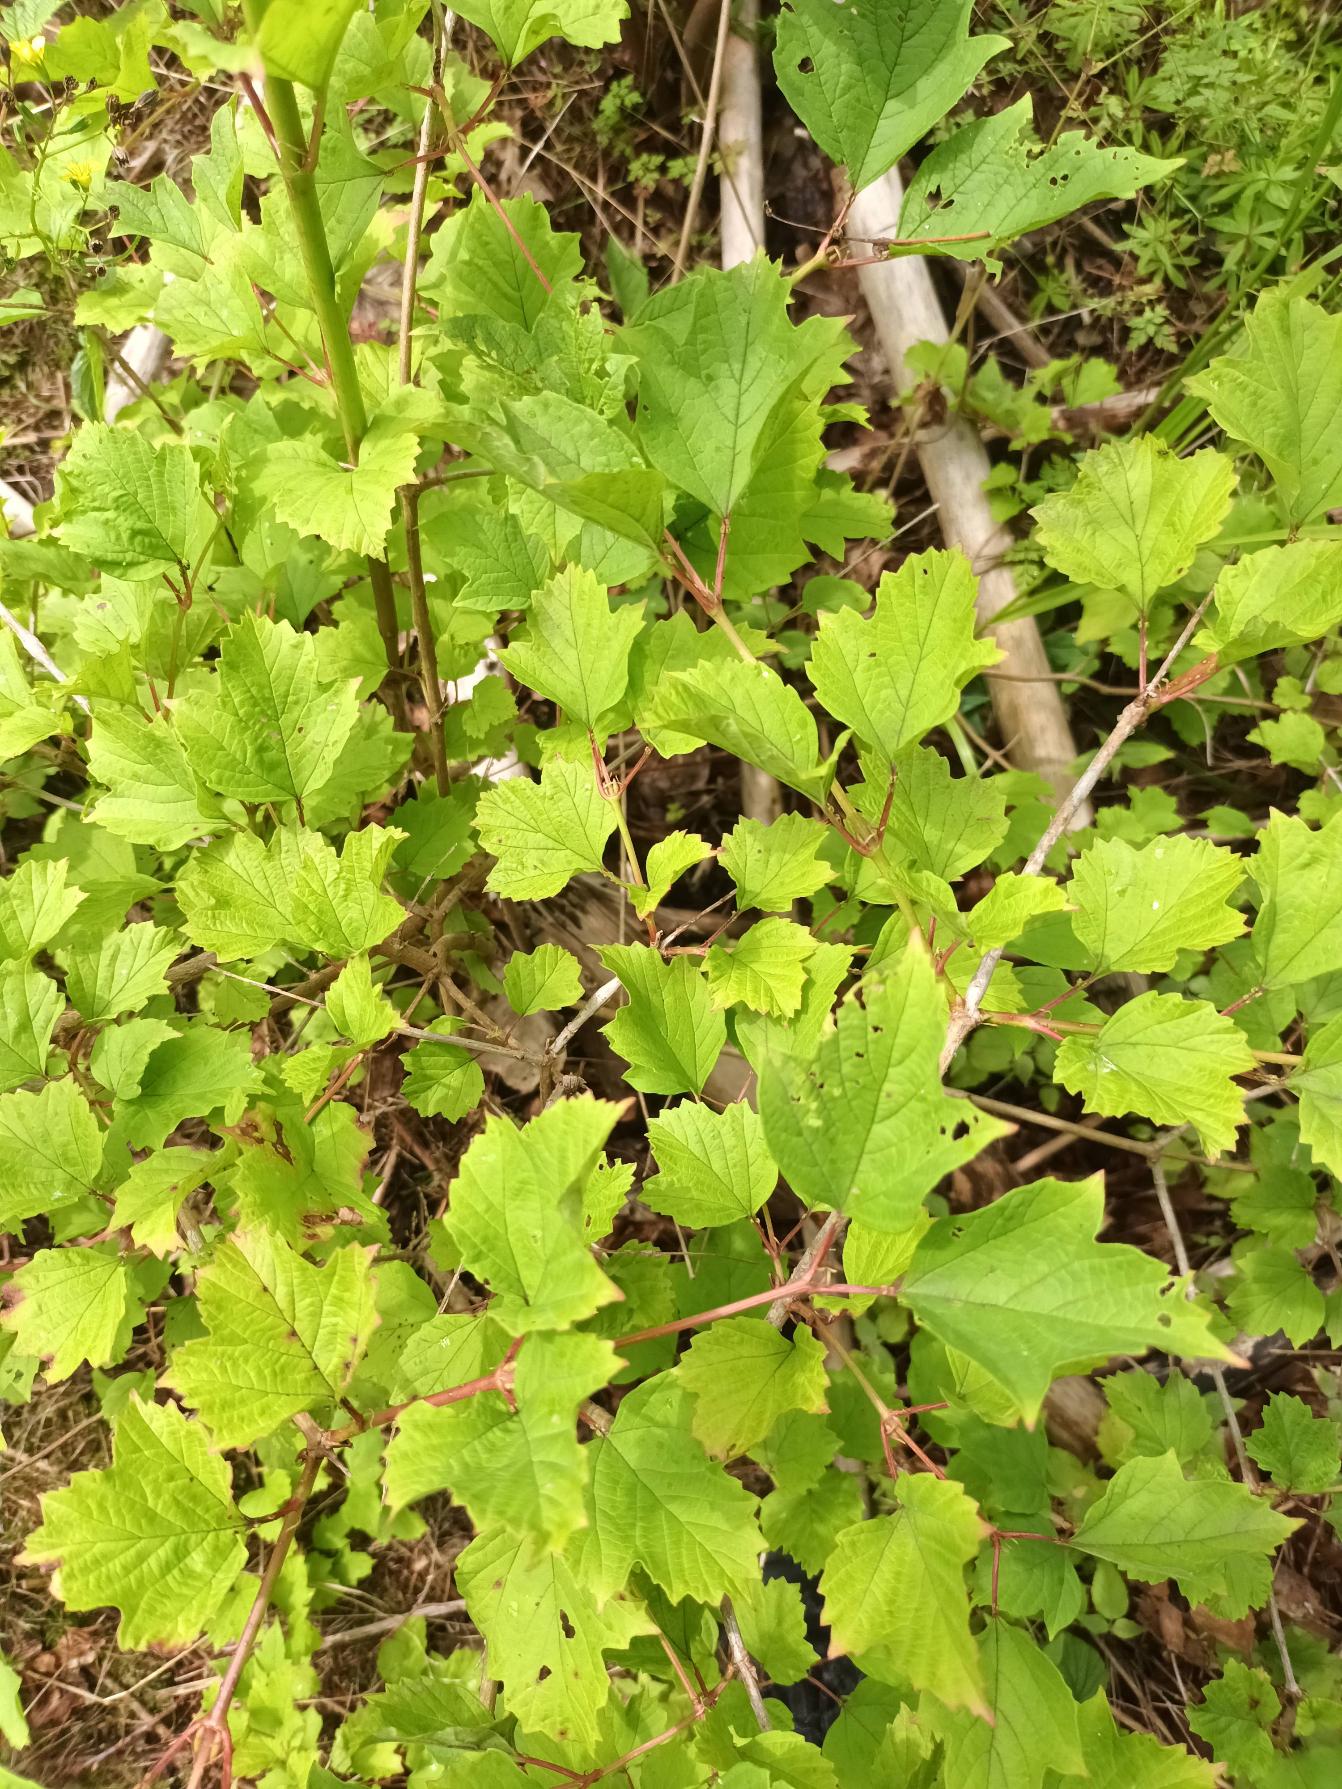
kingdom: Plantae
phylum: Tracheophyta
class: Magnoliopsida
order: Dipsacales
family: Viburnaceae
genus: Viburnum
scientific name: Viburnum opulus
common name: Kvalkved
